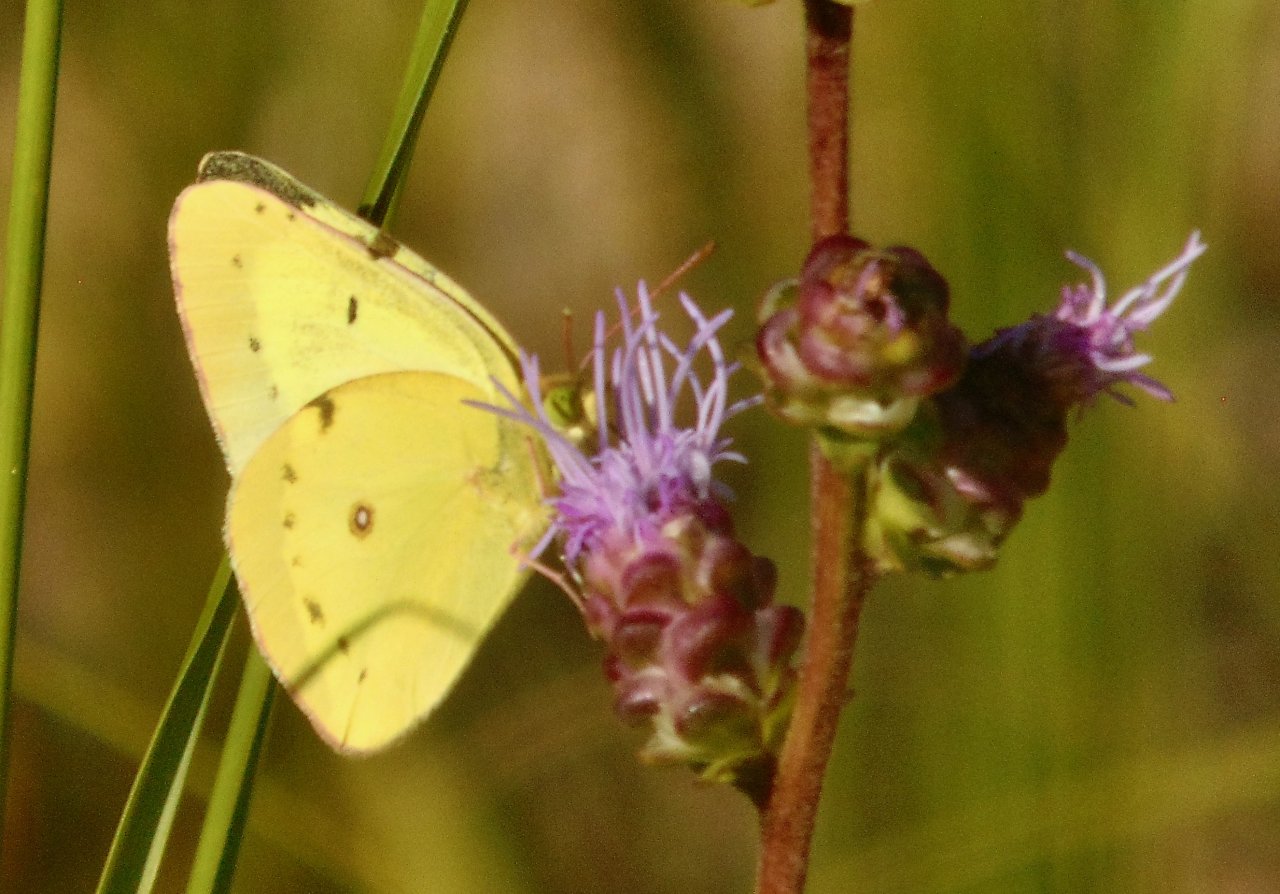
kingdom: Animalia
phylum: Arthropoda
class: Insecta
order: Lepidoptera
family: Pieridae
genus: Colias
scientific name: Colias philodice
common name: Clouded Sulphur
